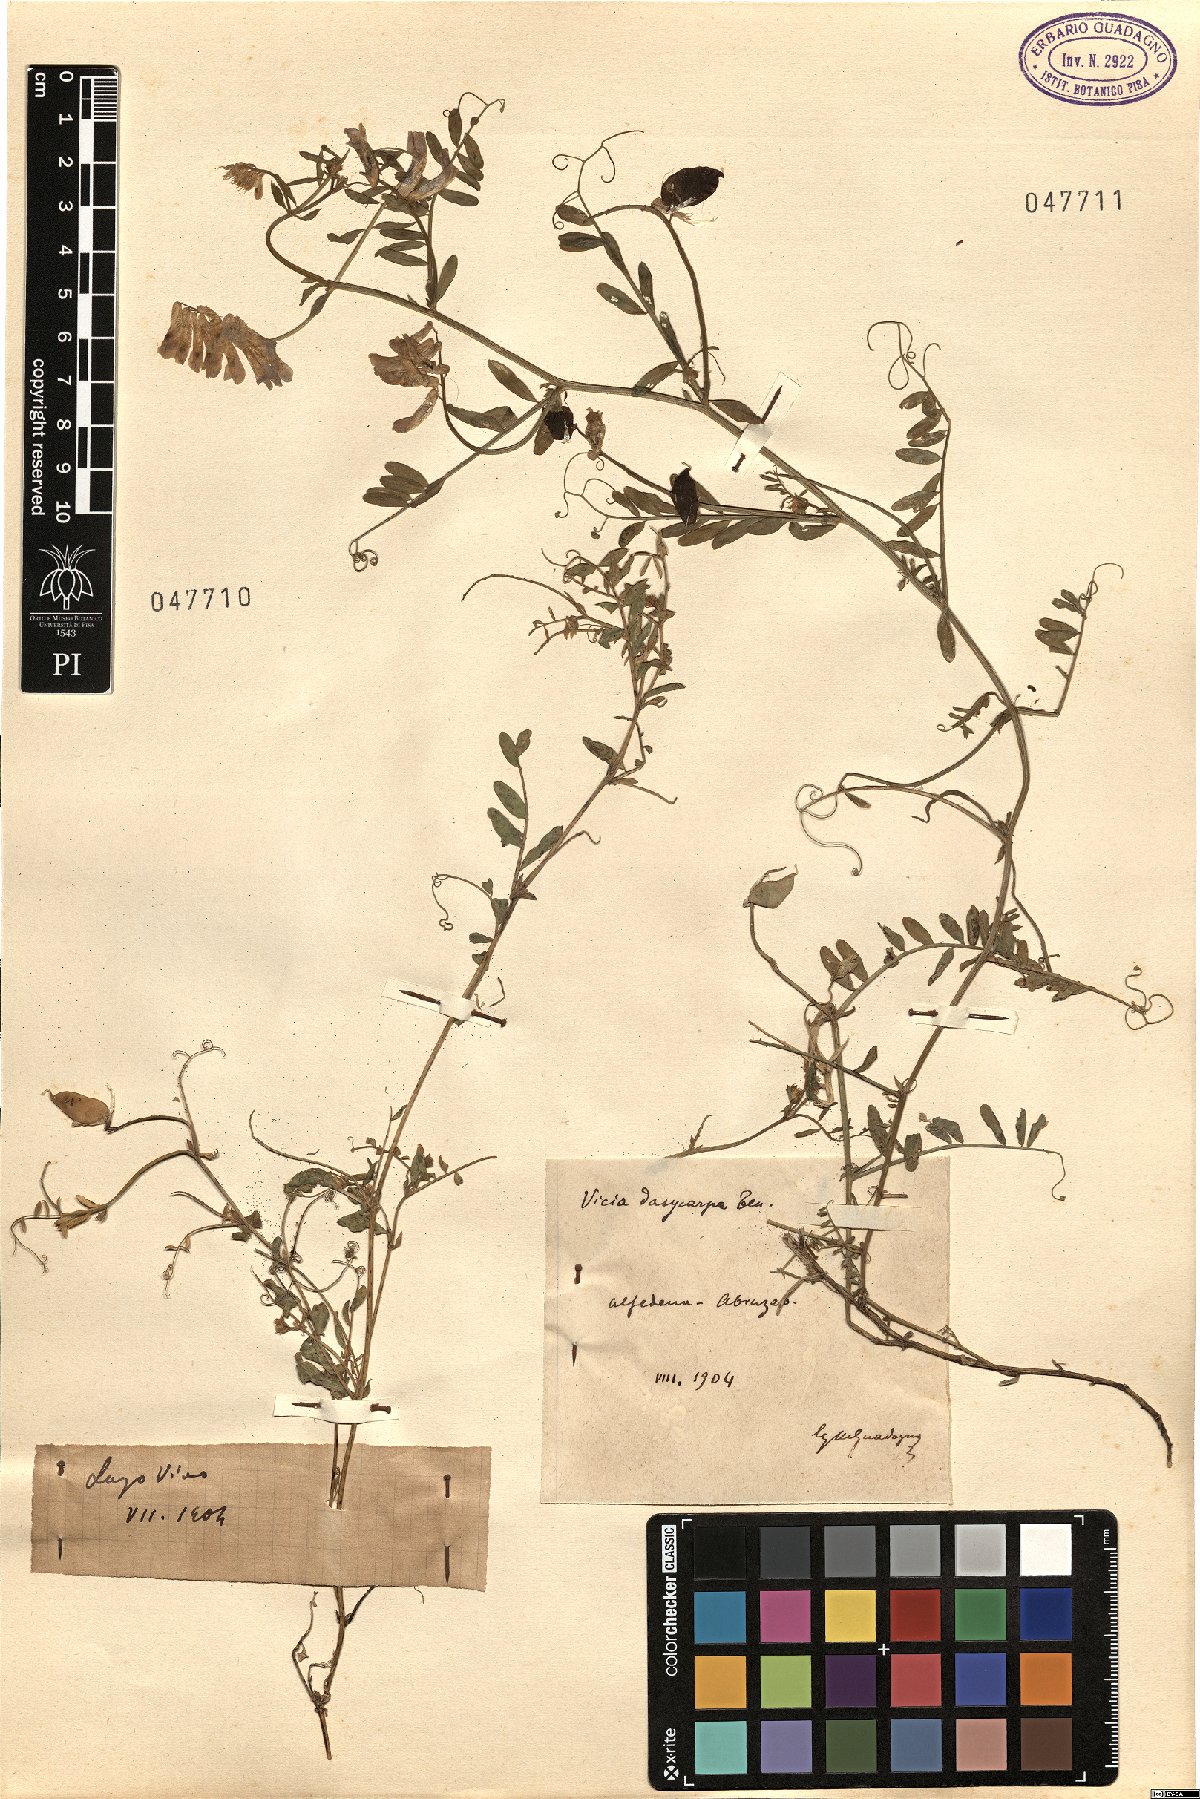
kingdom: Plantae
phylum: Tracheophyta
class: Magnoliopsida
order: Fabales
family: Fabaceae
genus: Vicia
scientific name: Vicia
